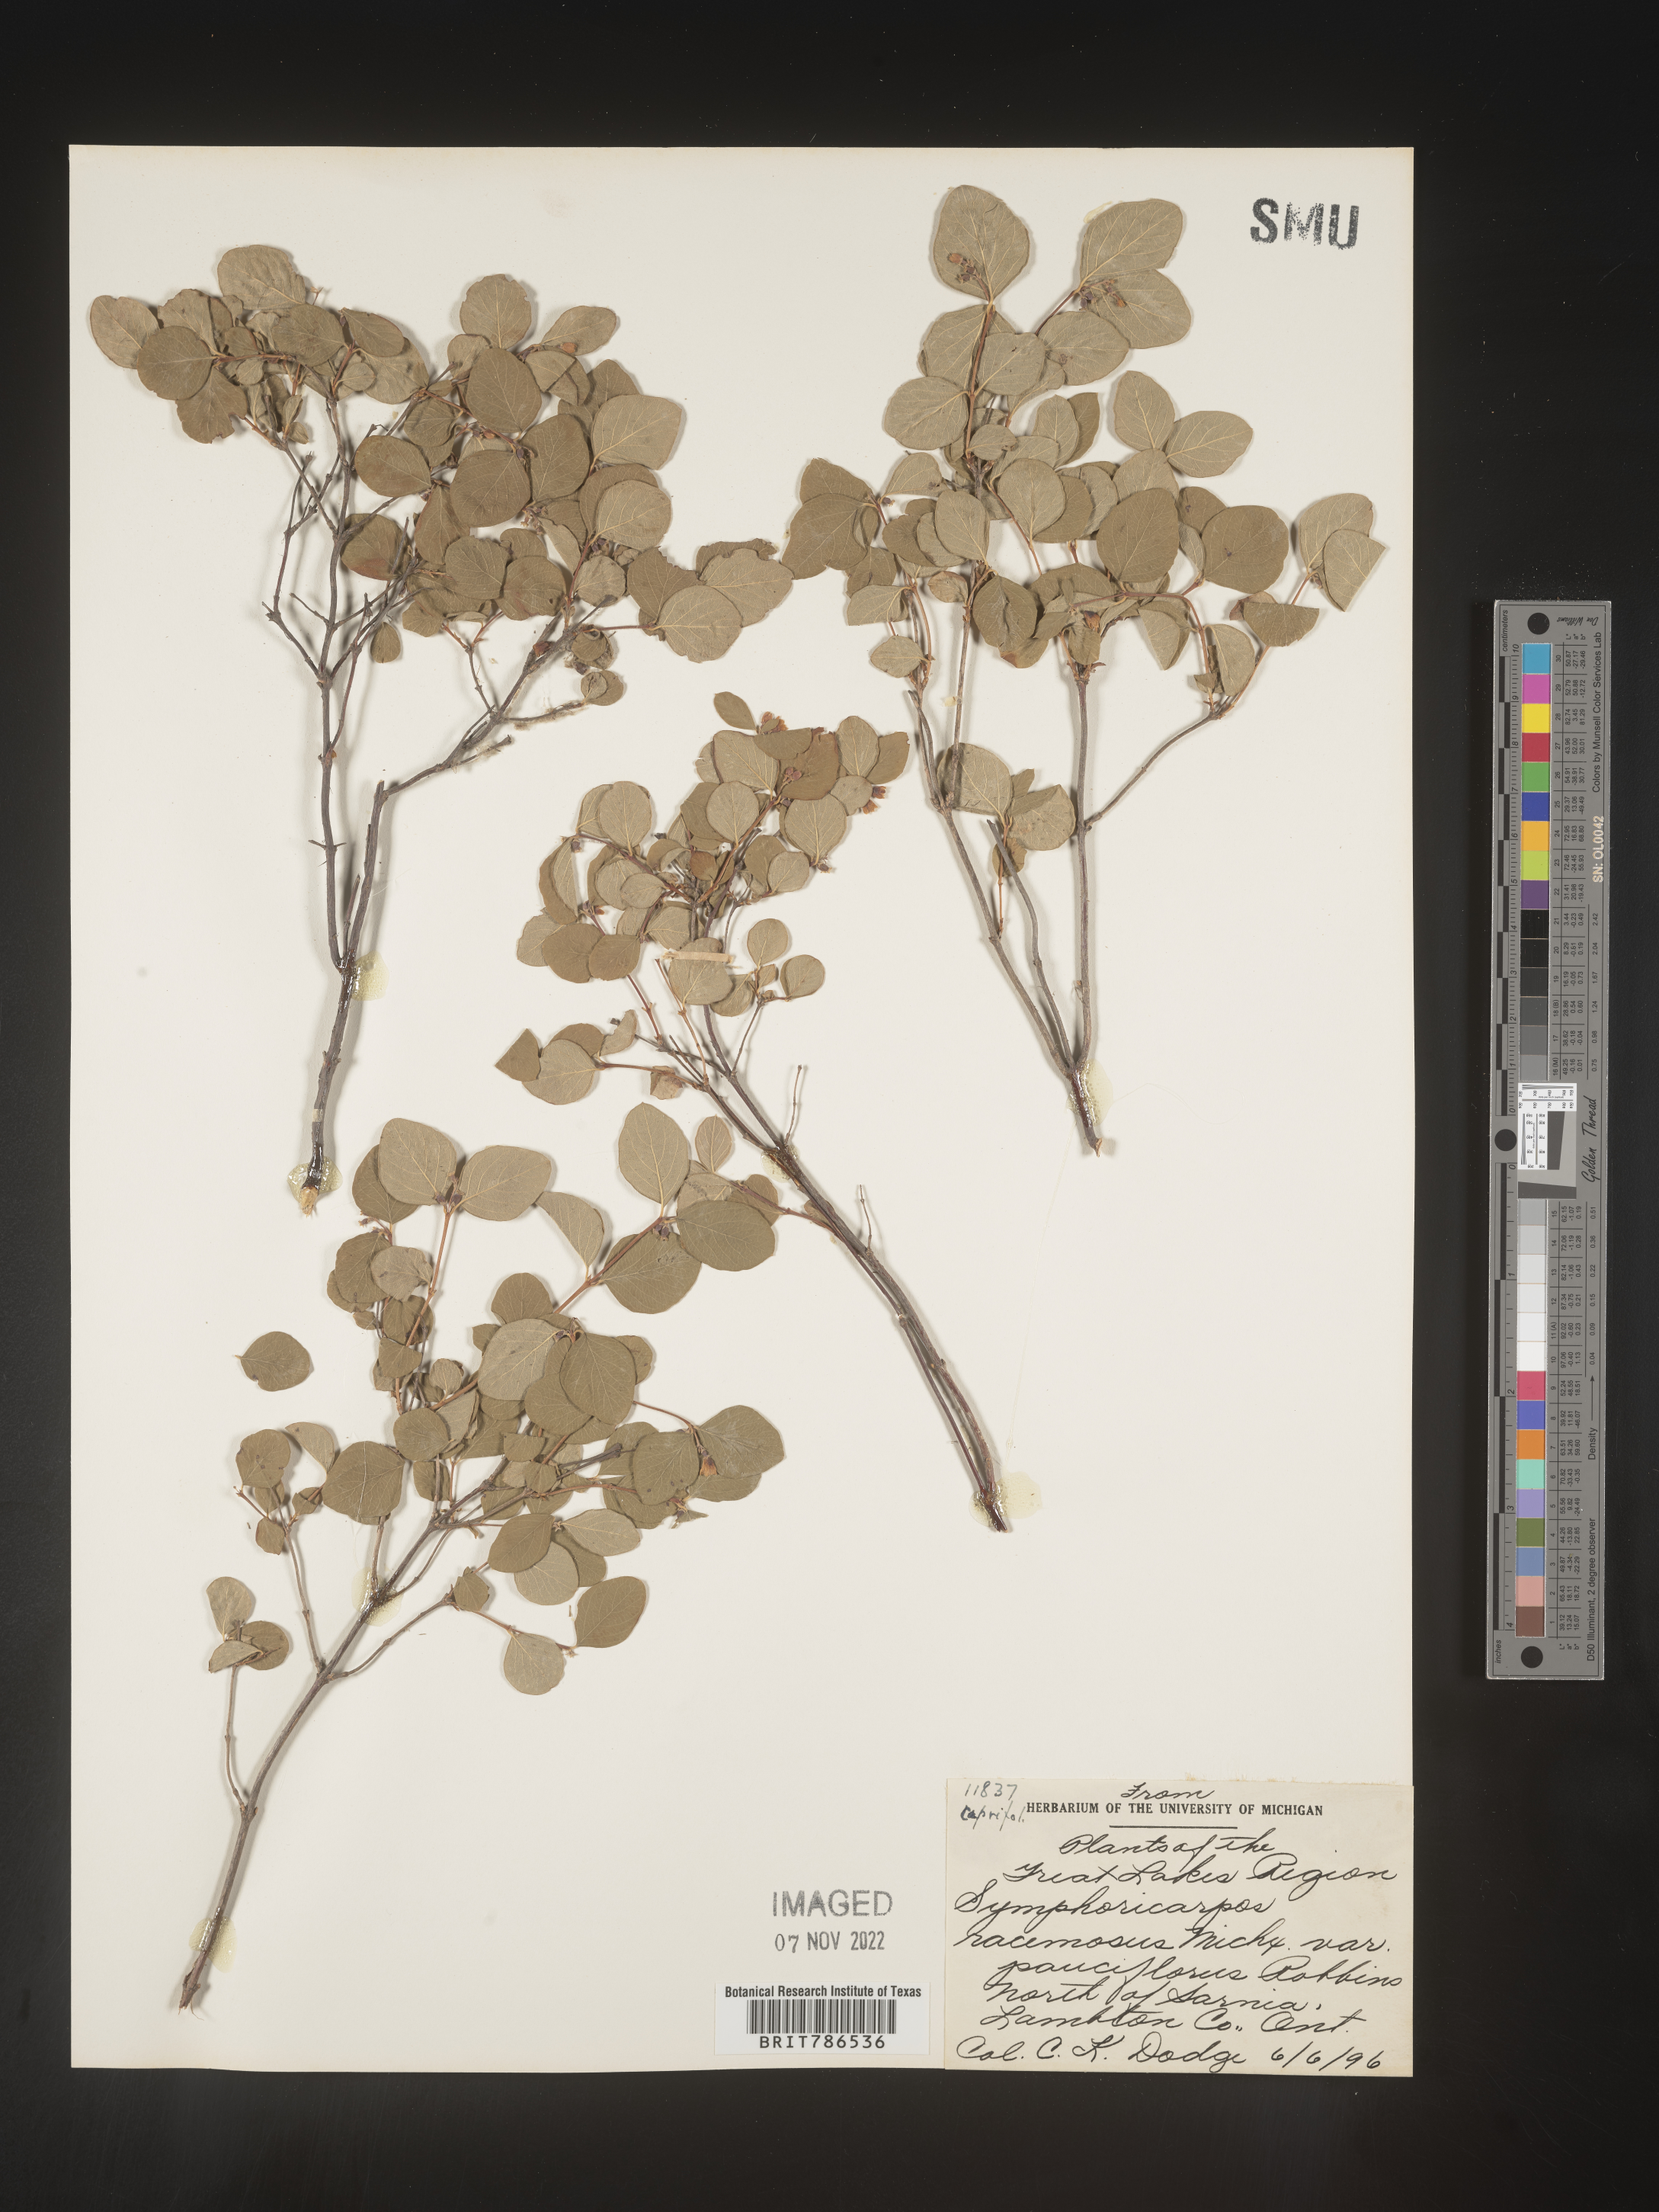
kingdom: Plantae
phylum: Tracheophyta
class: Magnoliopsida
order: Dipsacales
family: Caprifoliaceae
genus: Symphoricarpos
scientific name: Symphoricarpos
